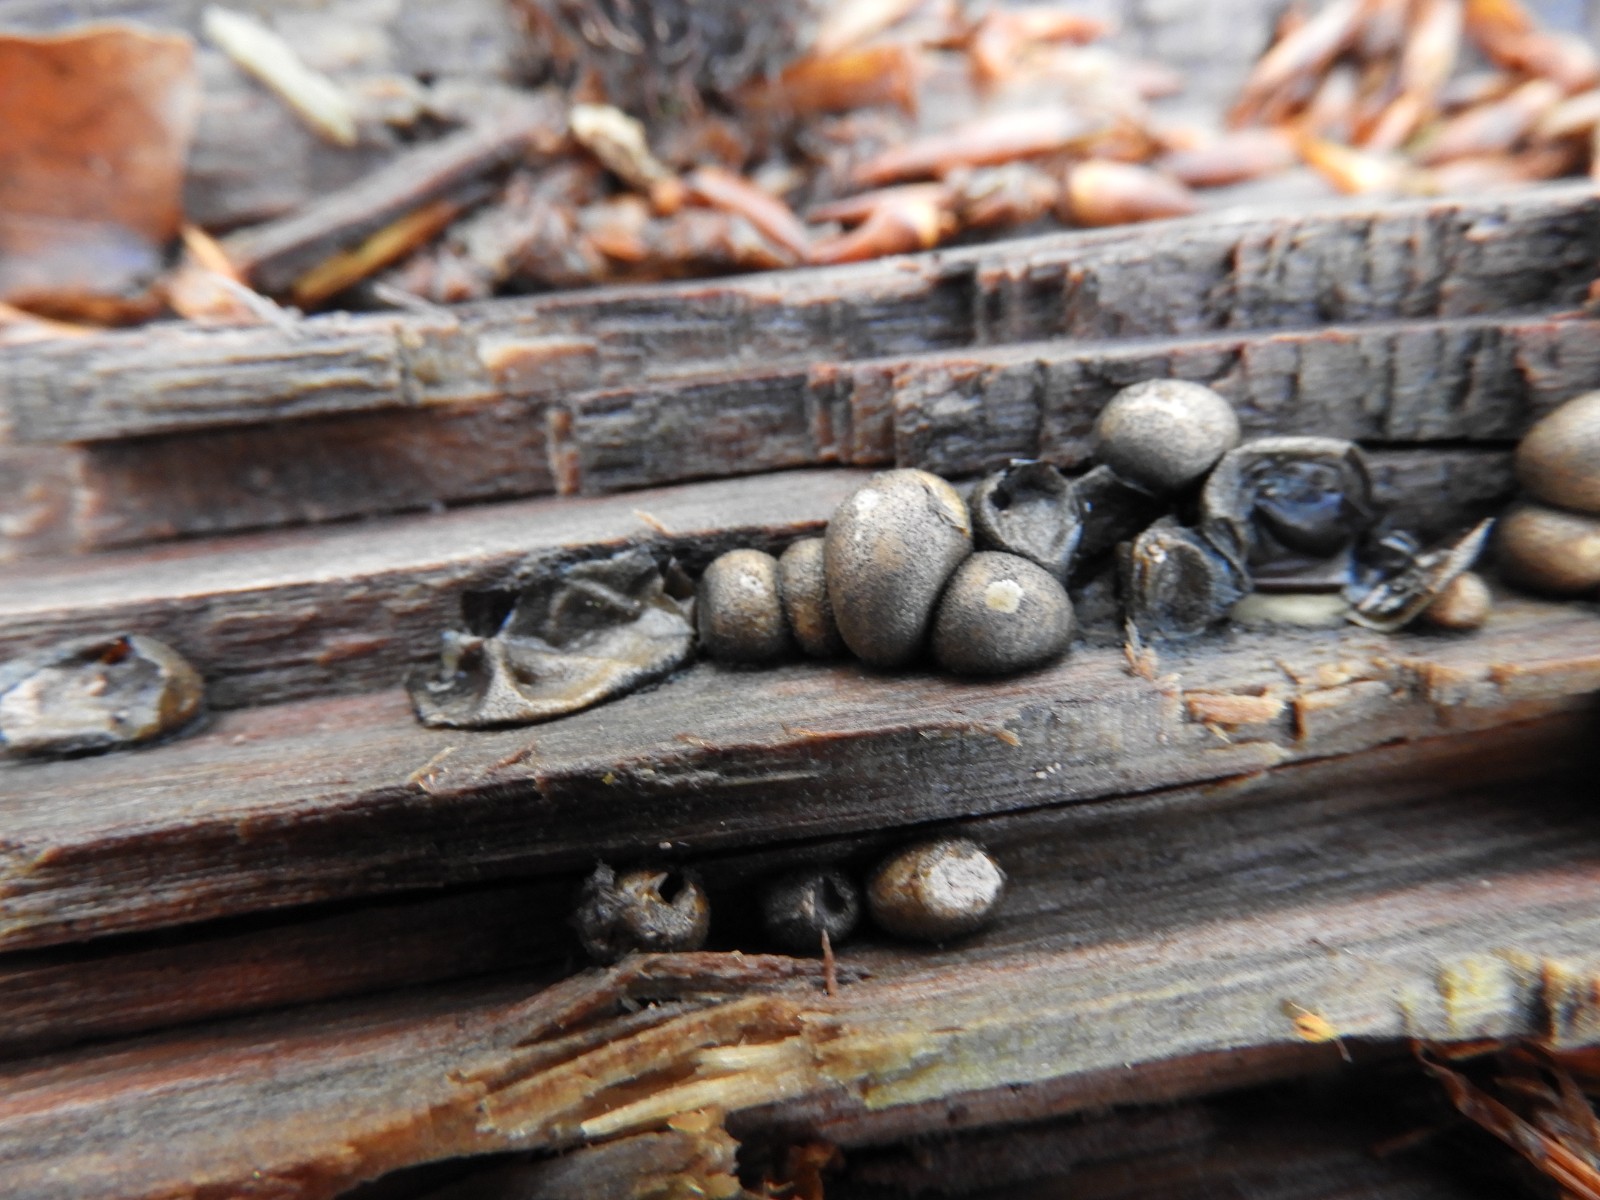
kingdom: Protozoa
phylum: Mycetozoa
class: Myxomycetes
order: Cribrariales
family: Tubiferaceae
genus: Lycogala
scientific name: Lycogala epidendrum
